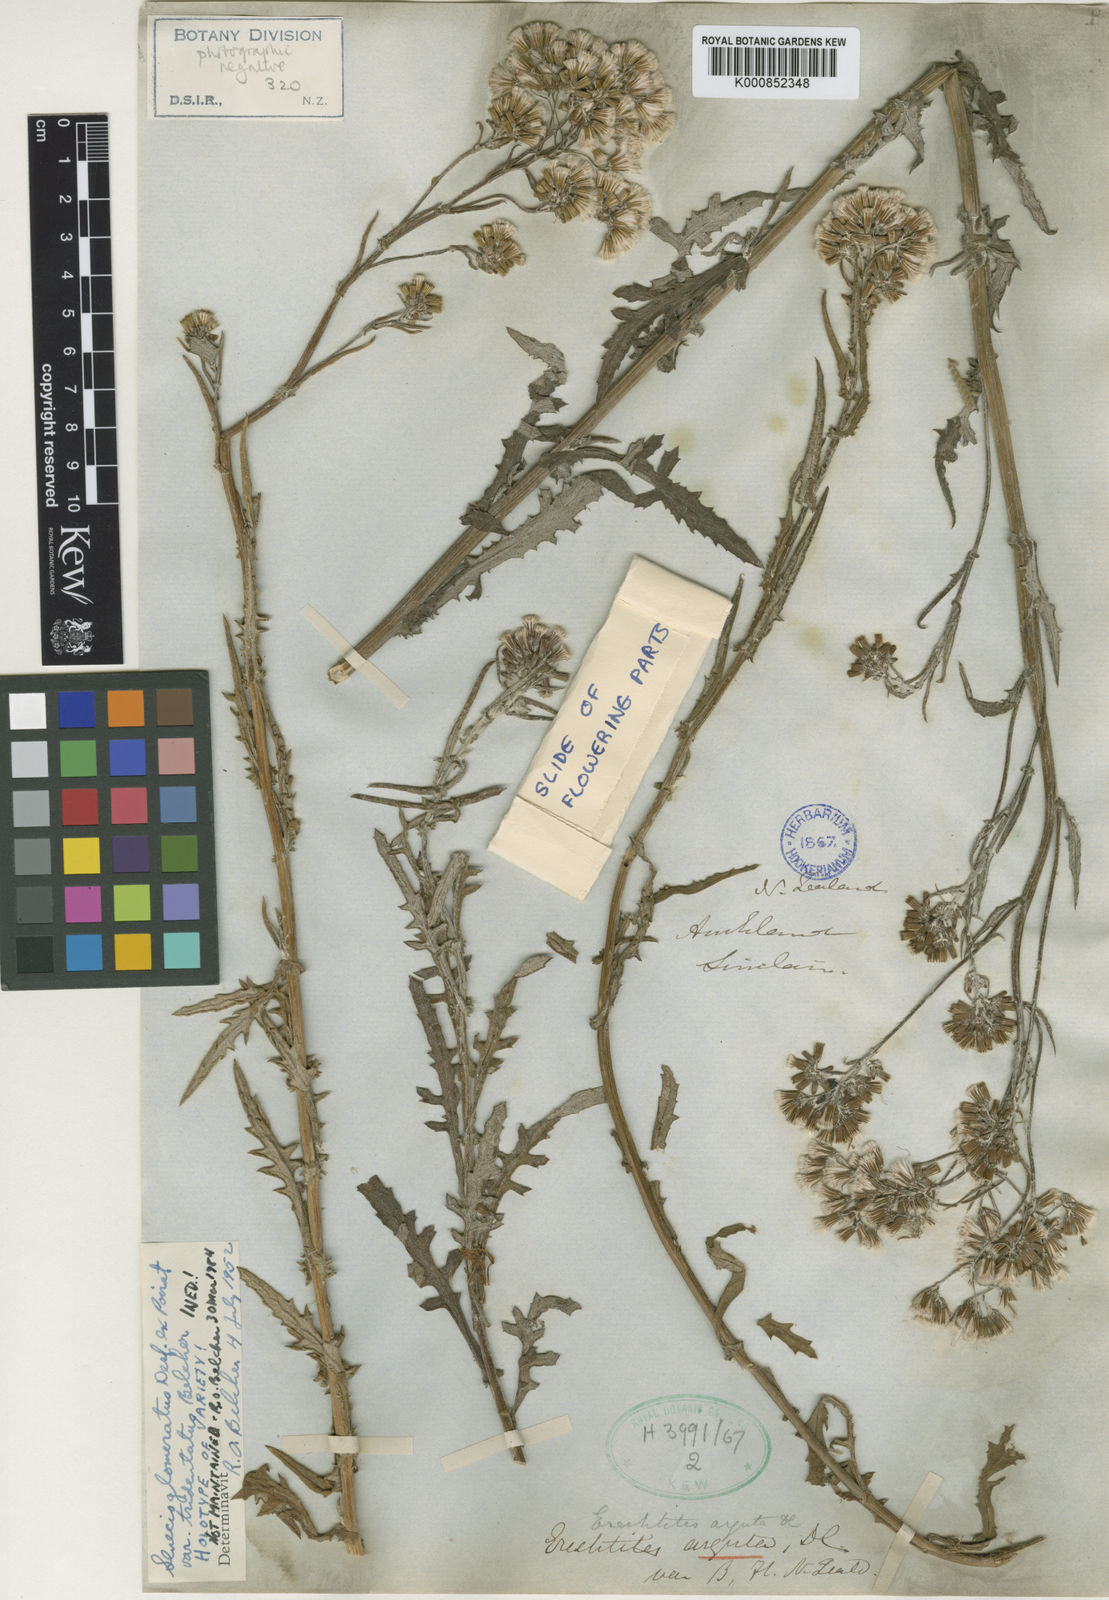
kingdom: Plantae
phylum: Tracheophyta
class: Magnoliopsida
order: Asterales
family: Asteraceae
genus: Senecio
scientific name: Senecio glomeratus
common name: Cutleaf burnweed
